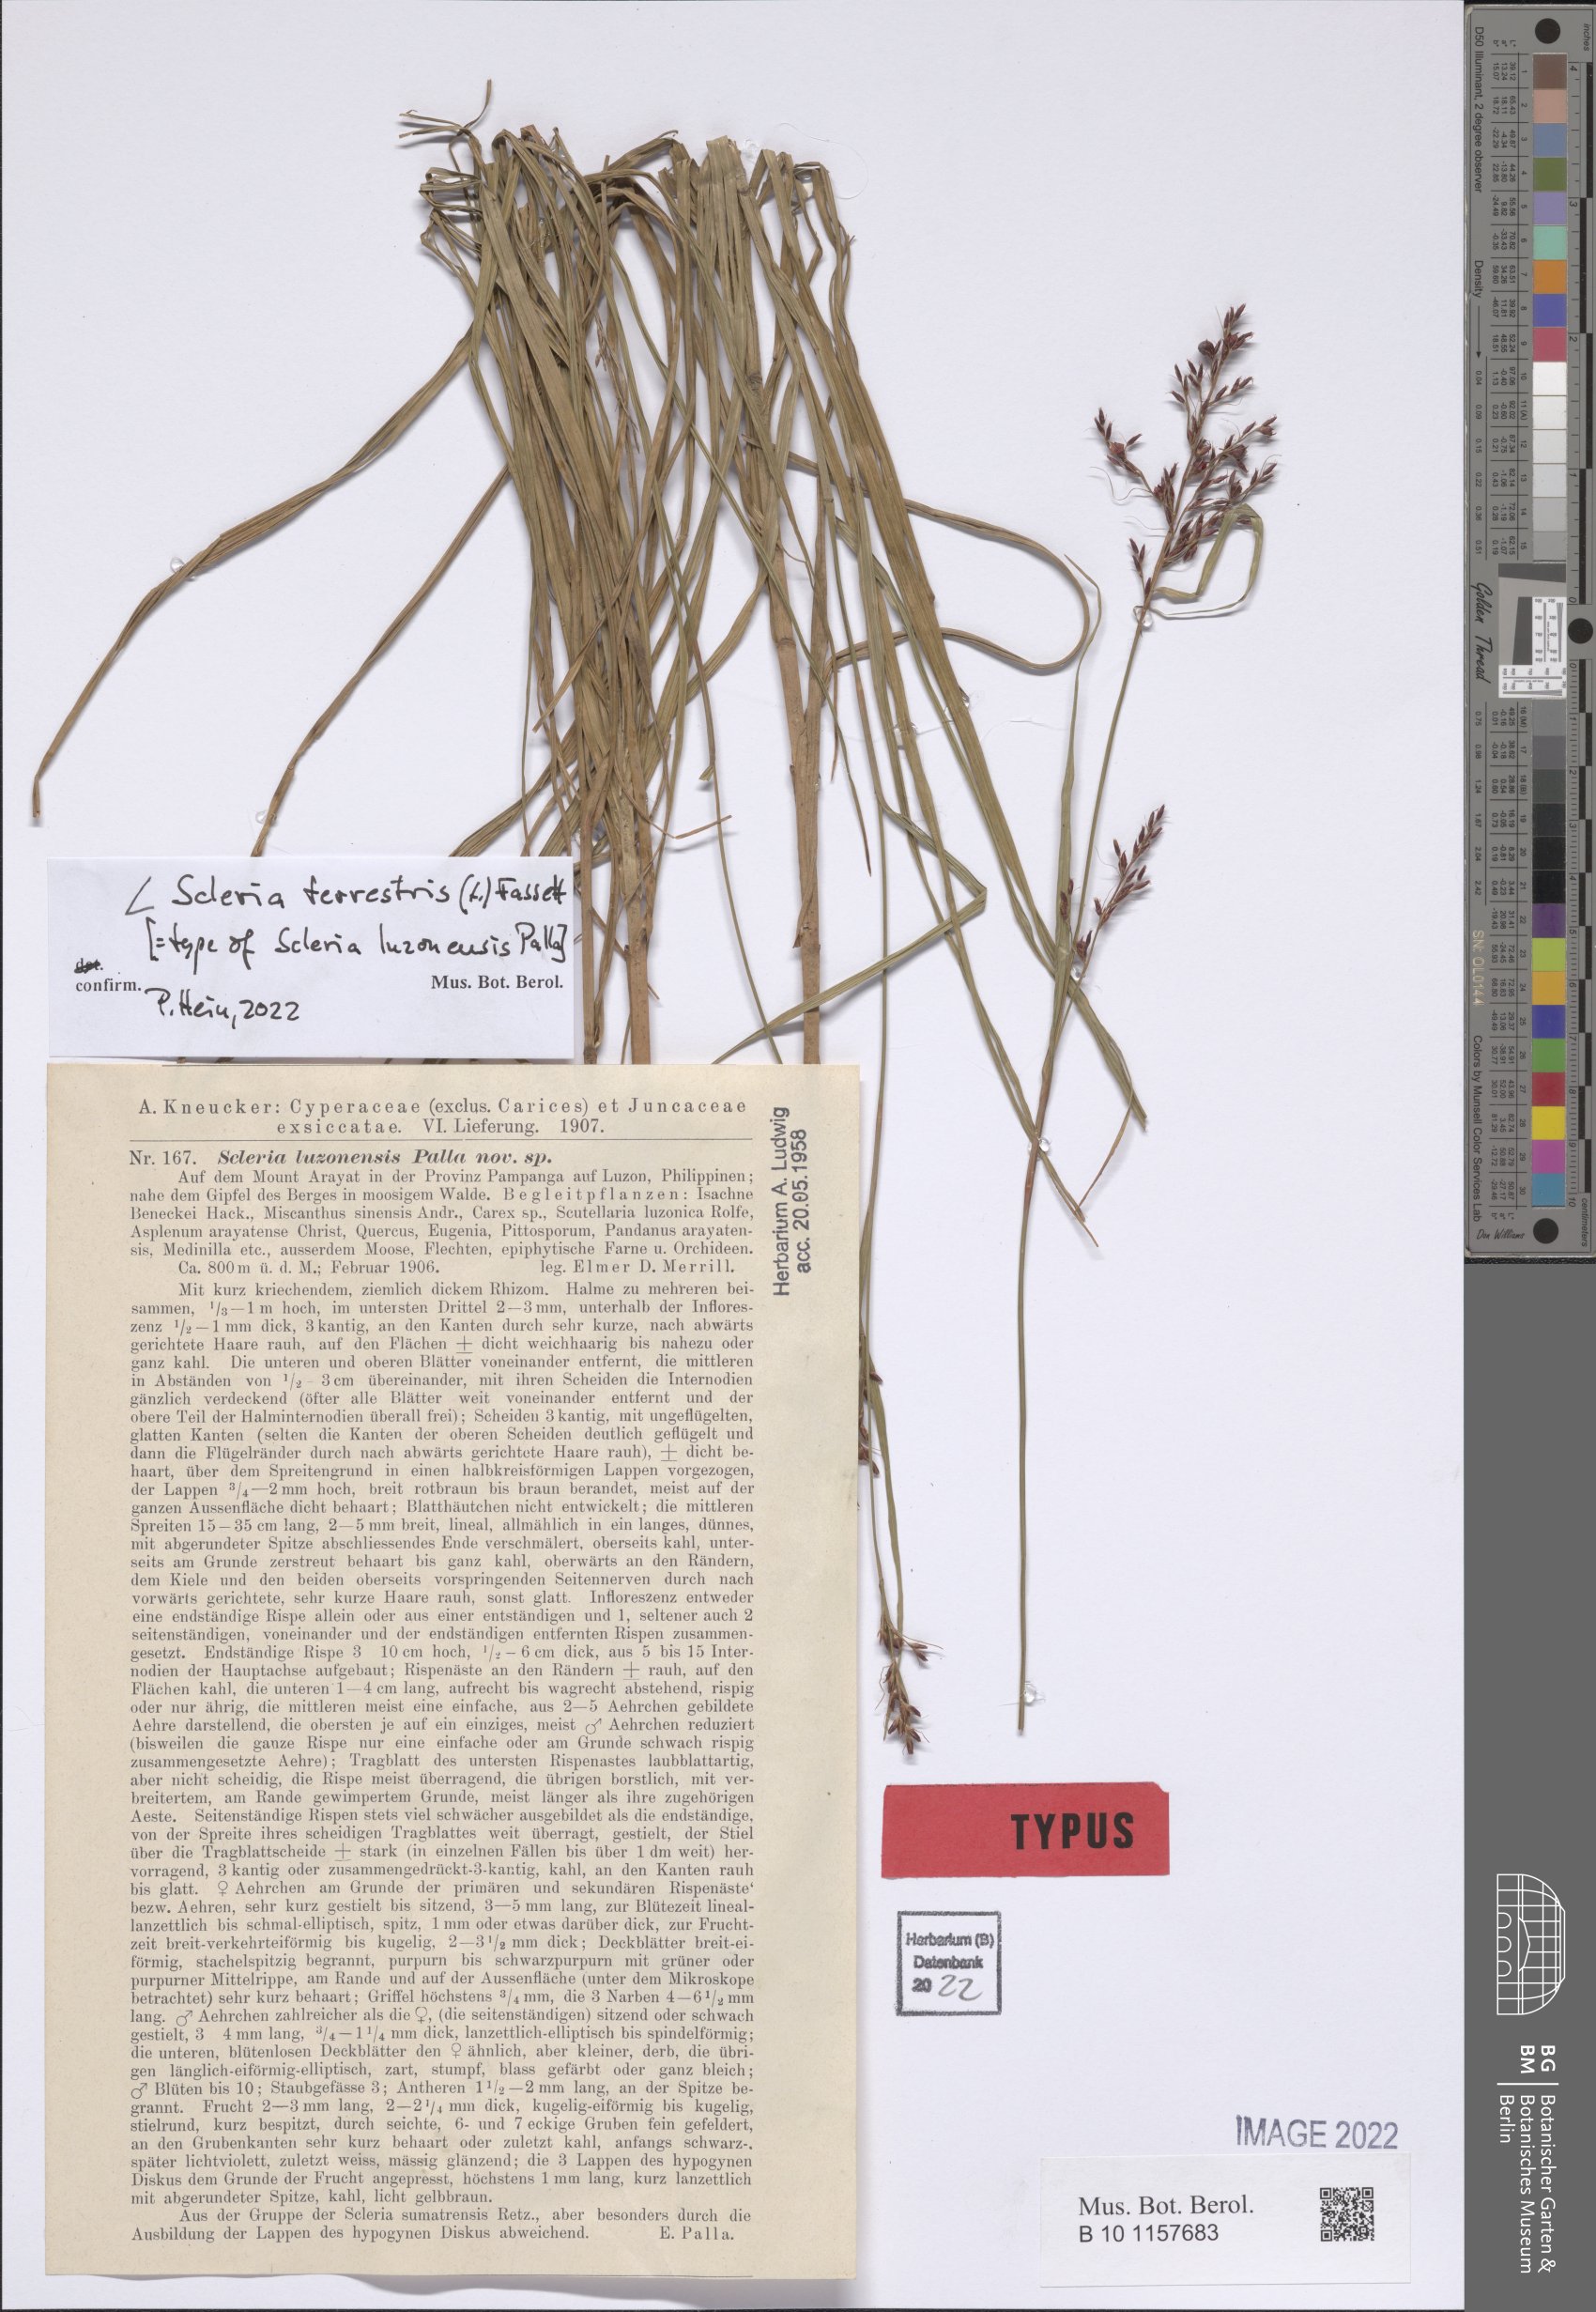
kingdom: Plantae
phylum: Tracheophyta
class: Liliopsida
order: Poales
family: Cyperaceae
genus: Scleria
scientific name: Scleria terrestris
